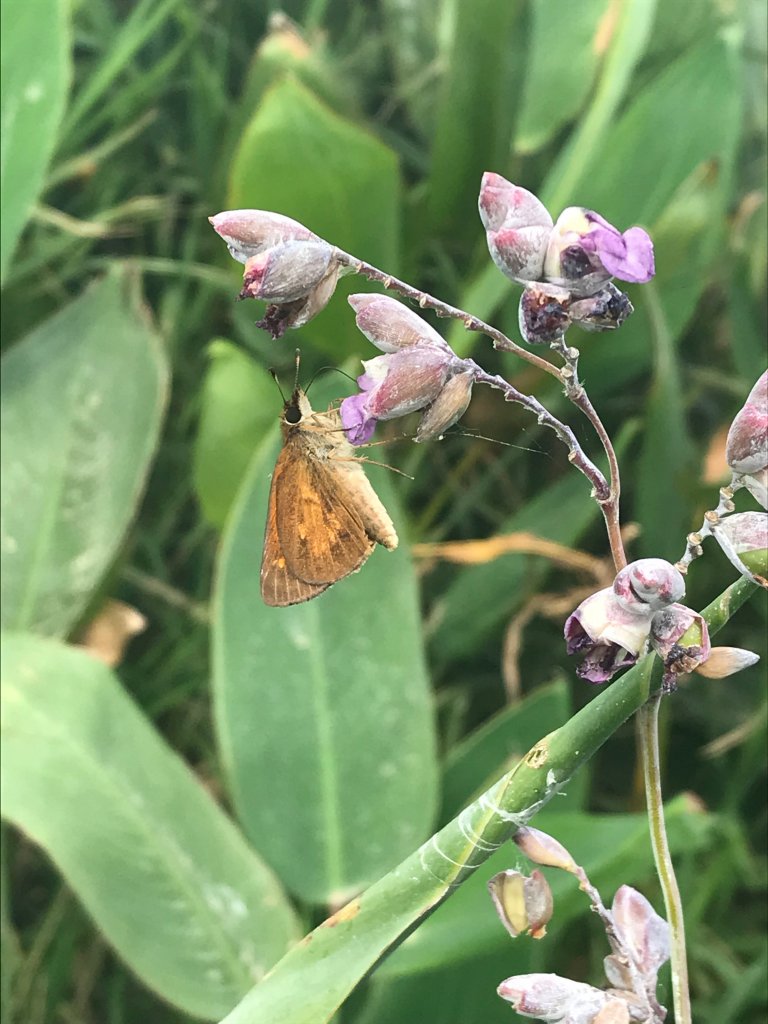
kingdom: Animalia
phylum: Arthropoda
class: Insecta
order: Lepidoptera
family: Hesperiidae
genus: Poanes
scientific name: Poanes viator
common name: Broad-winged Skipper
